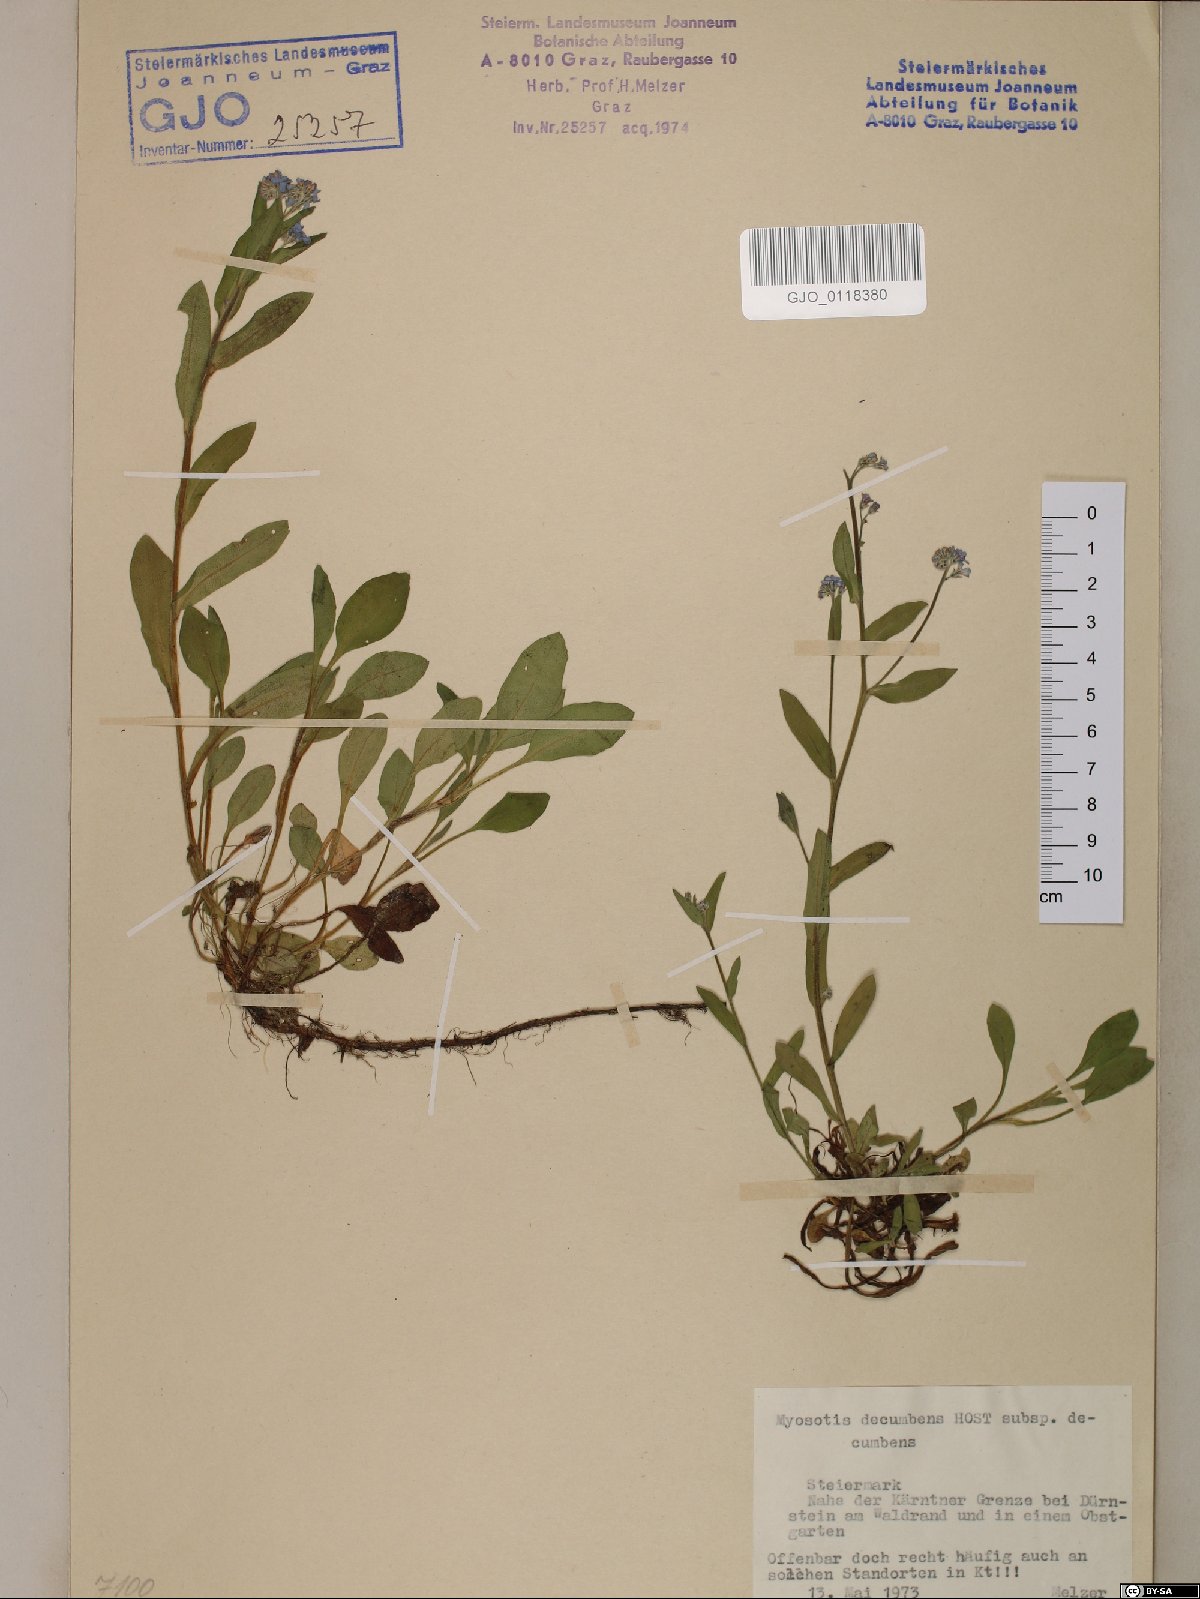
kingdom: Plantae
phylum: Tracheophyta
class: Magnoliopsida
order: Boraginales
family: Boraginaceae
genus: Myosotis
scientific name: Myosotis decumbens
